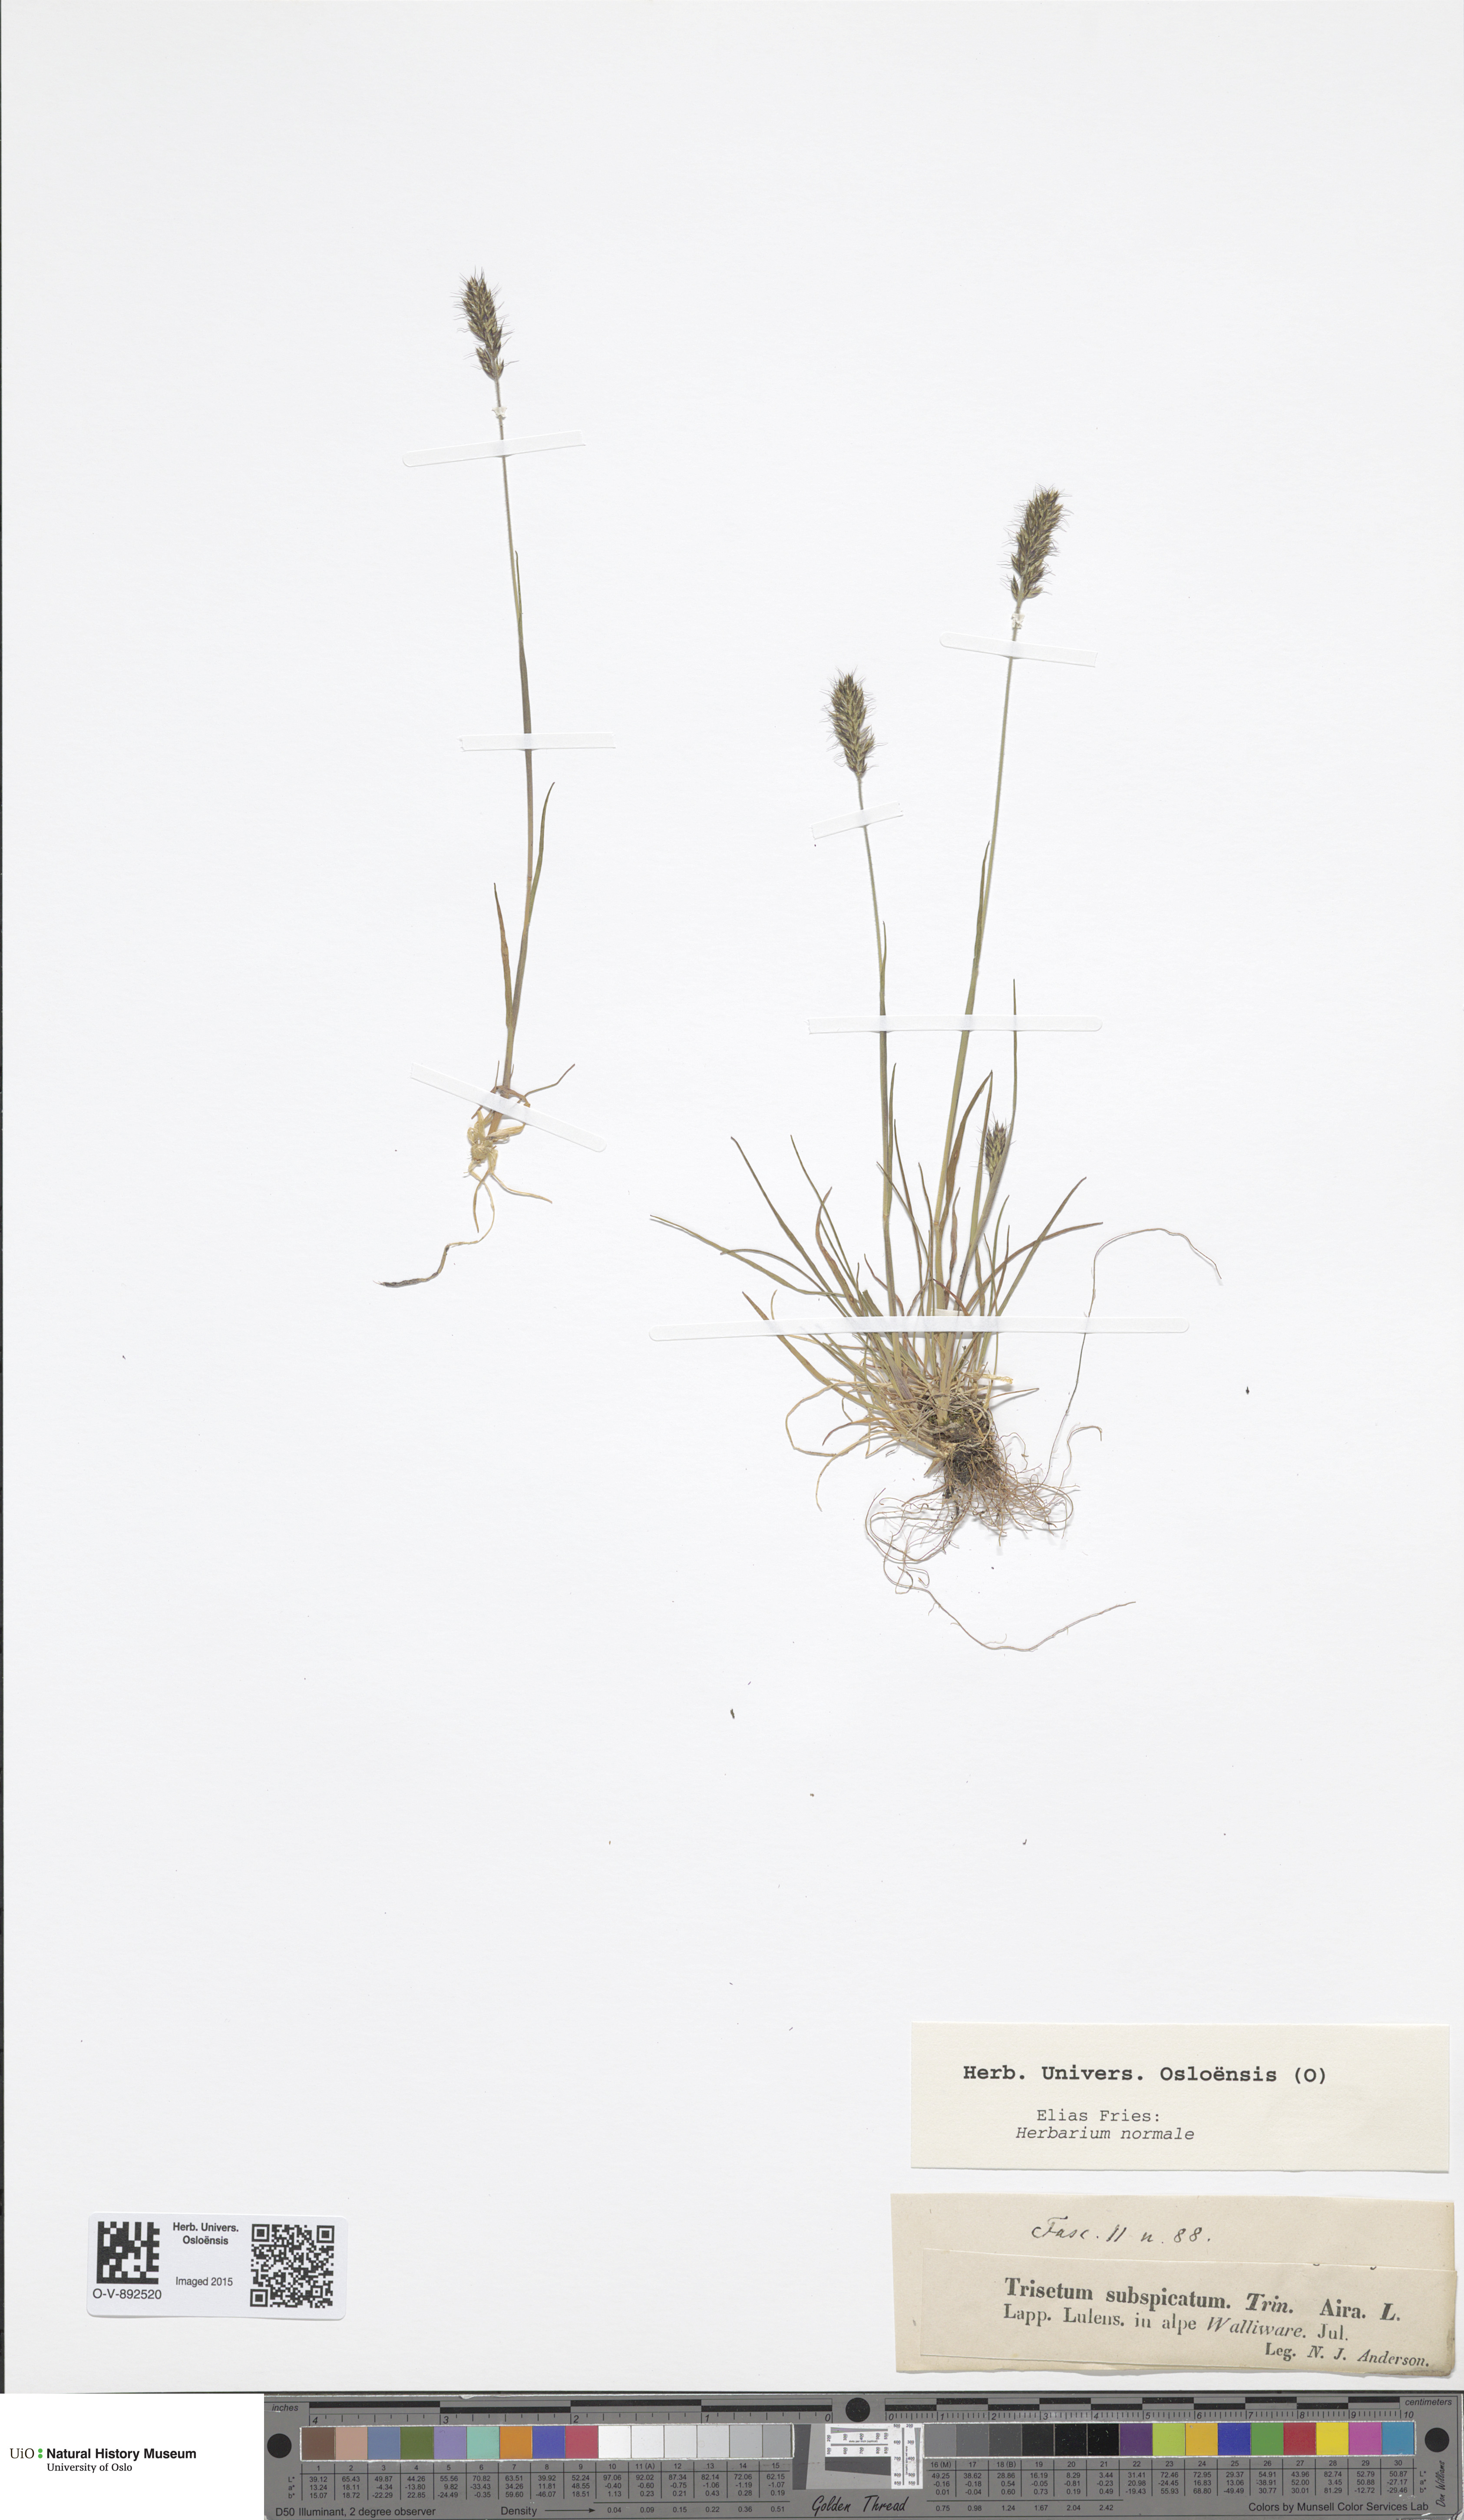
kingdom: Plantae
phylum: Tracheophyta
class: Liliopsida
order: Poales
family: Poaceae
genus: Koeleria
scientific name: Koeleria spicata
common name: Mountain trisetum
